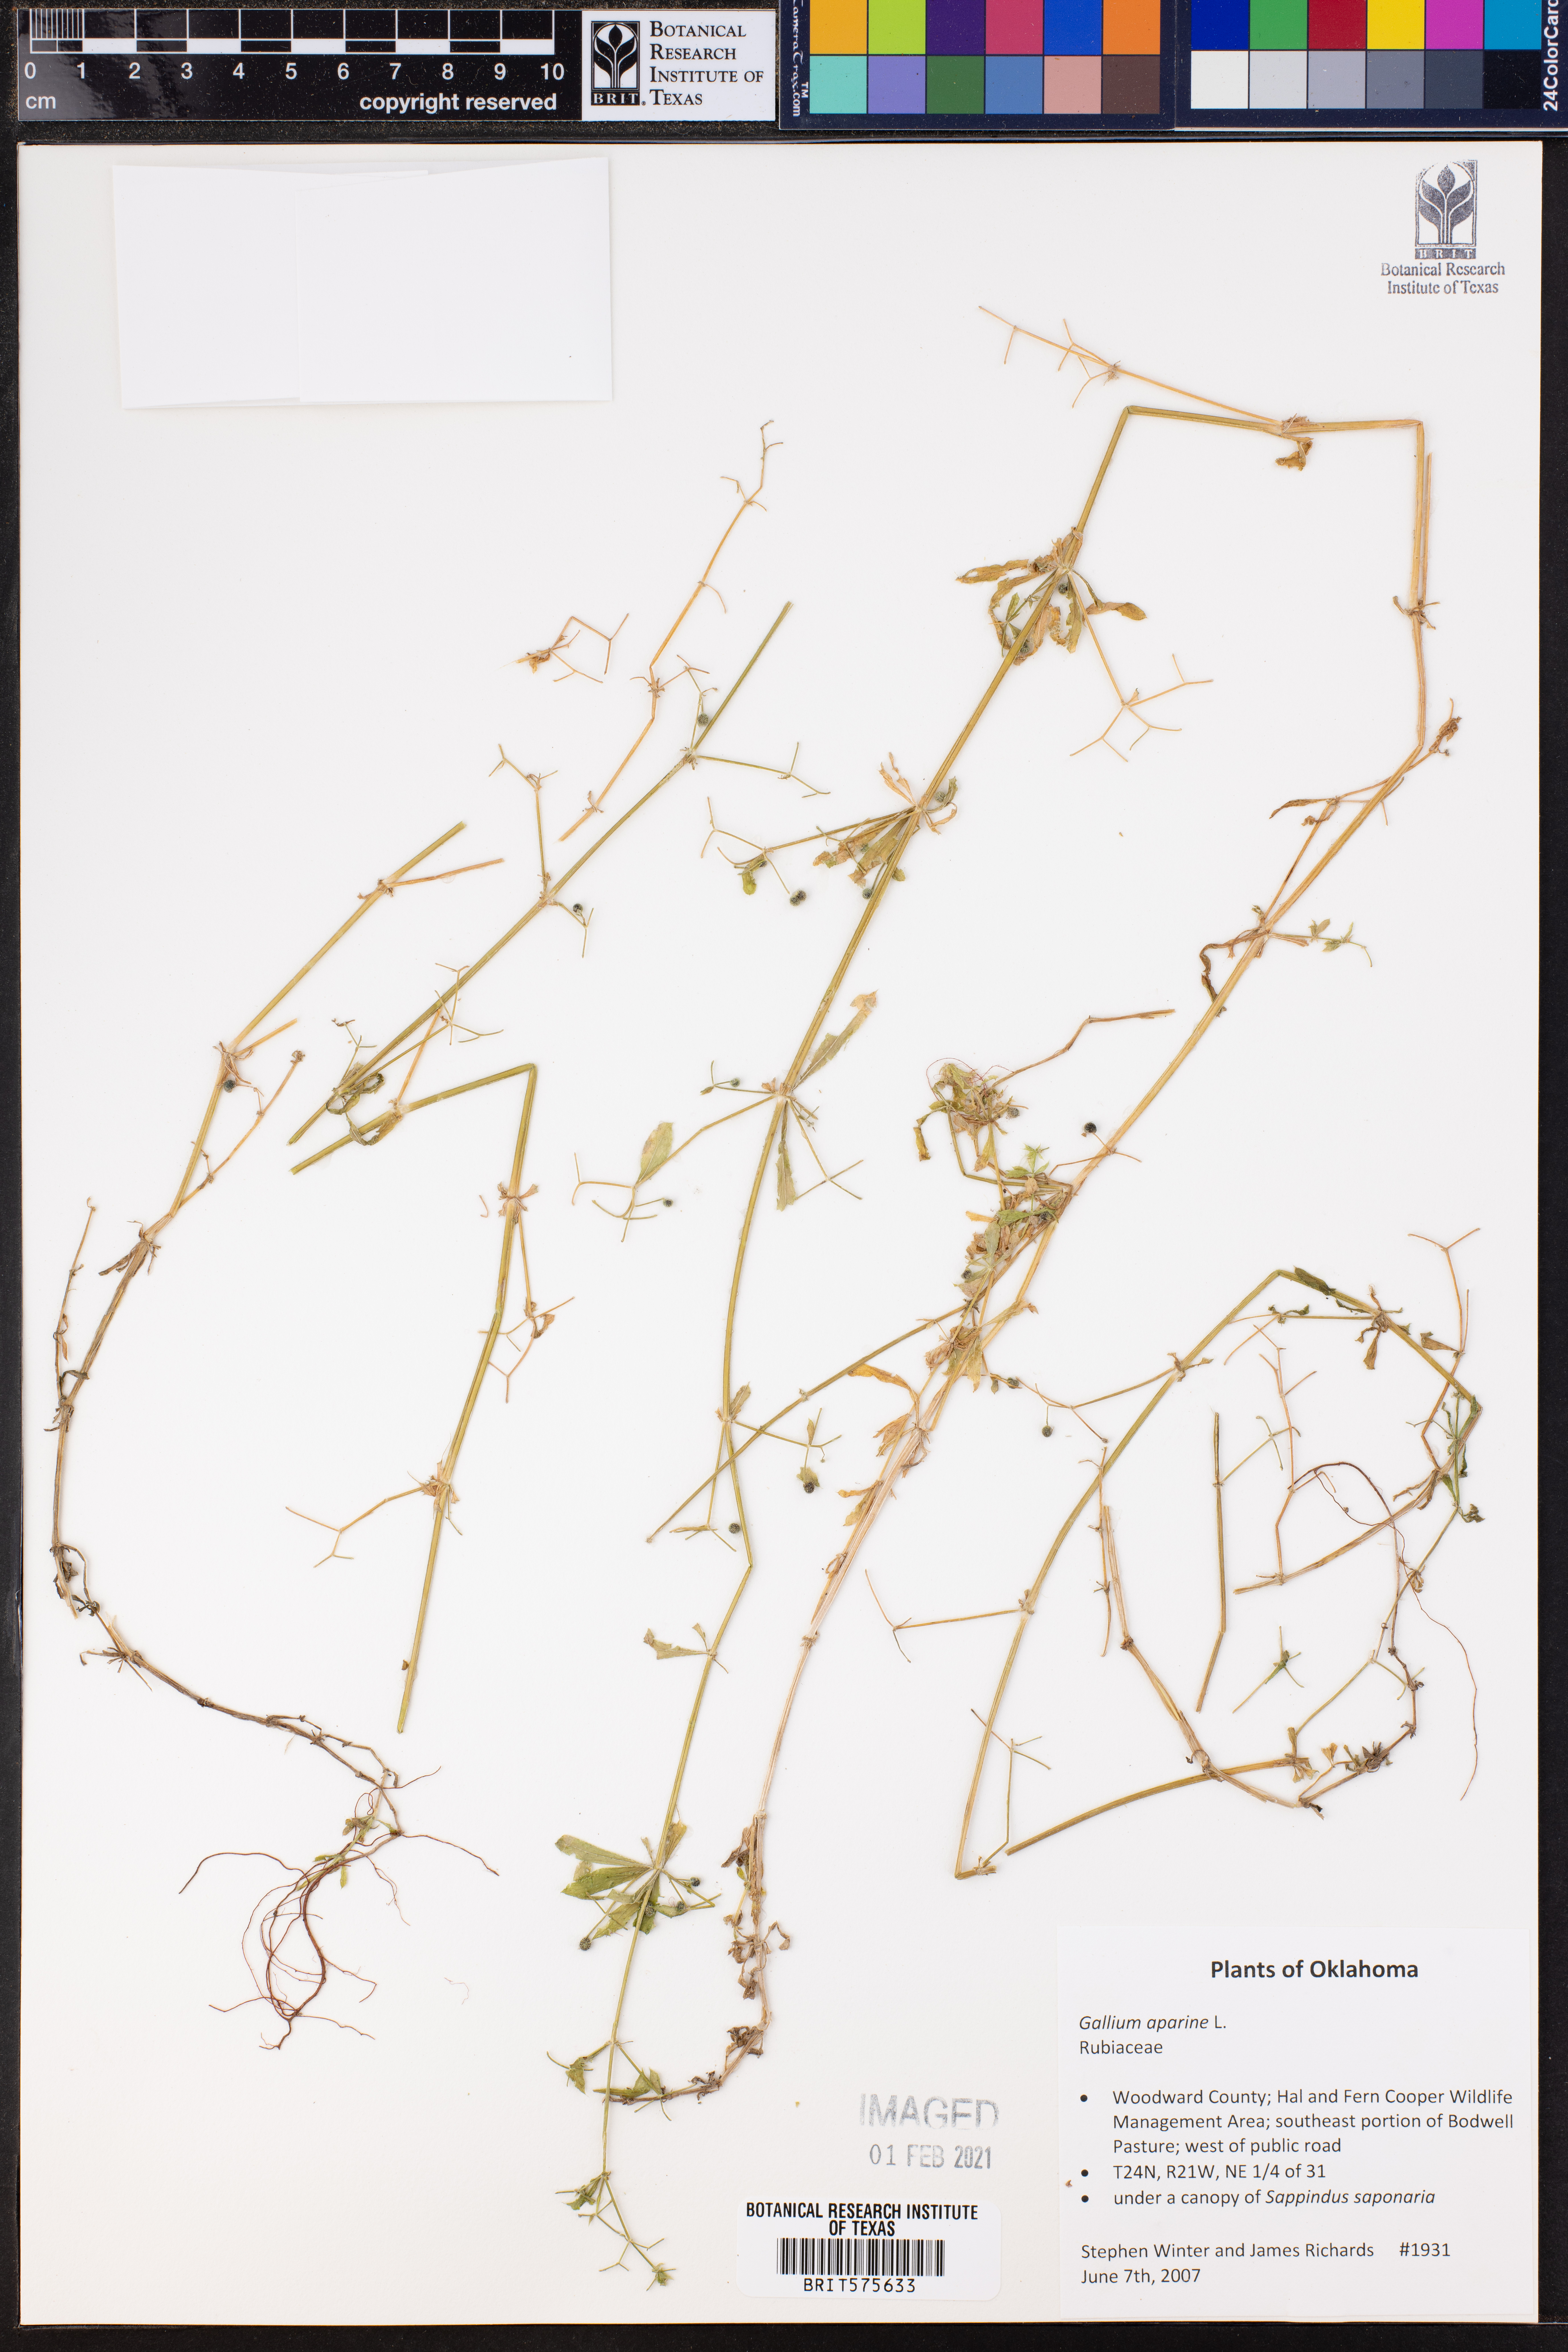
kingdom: Plantae
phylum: Tracheophyta
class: Magnoliopsida
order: Gentianales
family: Rubiaceae
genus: Galium
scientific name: Galium aparine
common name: Cleavers
